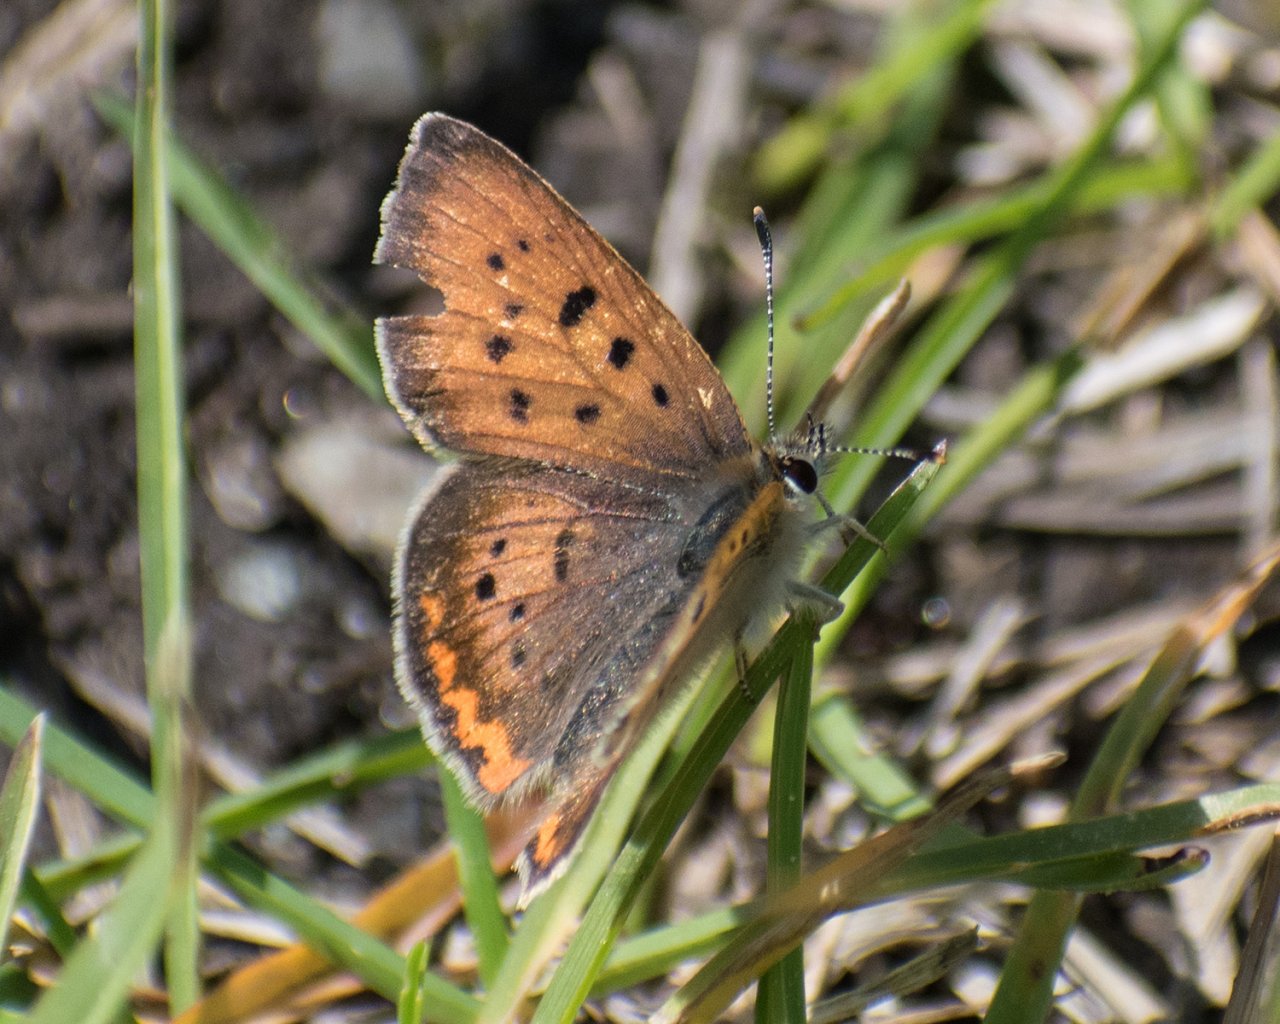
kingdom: Animalia
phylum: Arthropoda
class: Insecta
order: Lepidoptera
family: Sesiidae
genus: Sesia
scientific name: Sesia Lycaena helloides
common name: Purplish Copper
